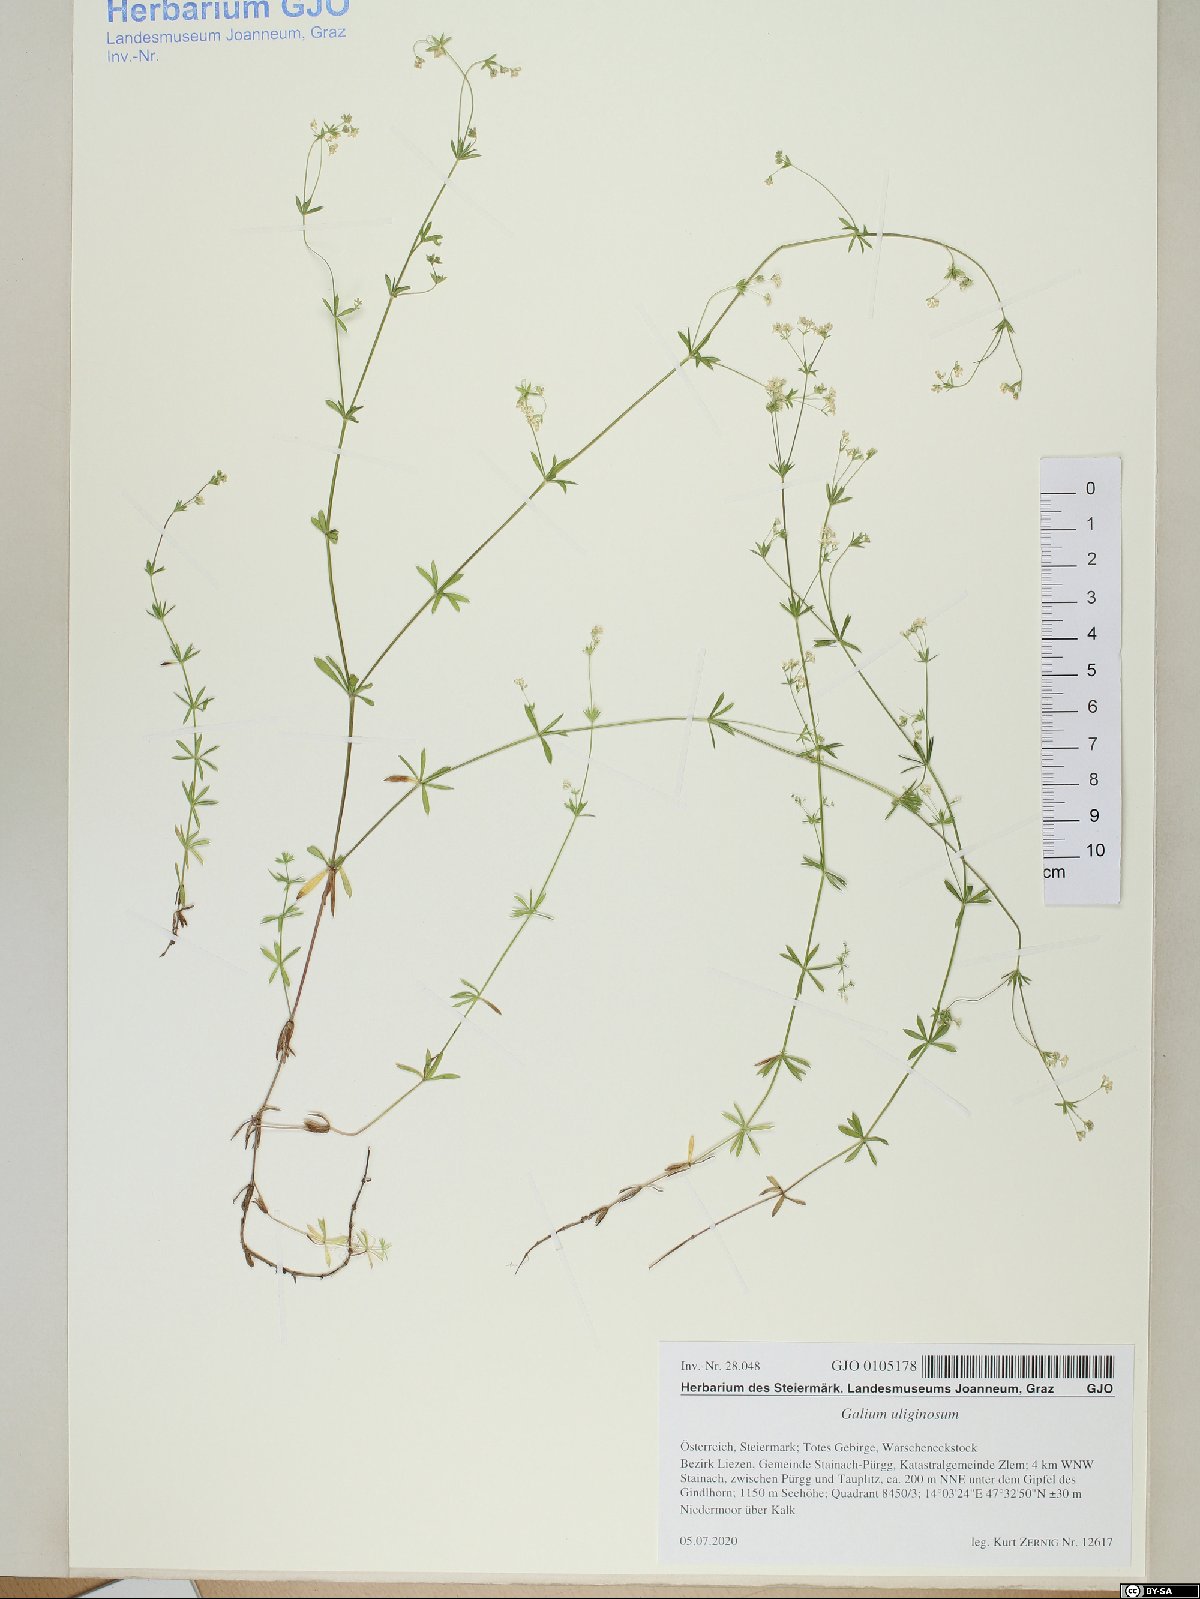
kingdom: Plantae
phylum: Tracheophyta
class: Magnoliopsida
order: Gentianales
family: Rubiaceae
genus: Galium
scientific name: Galium uliginosum
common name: Fen bedstraw
